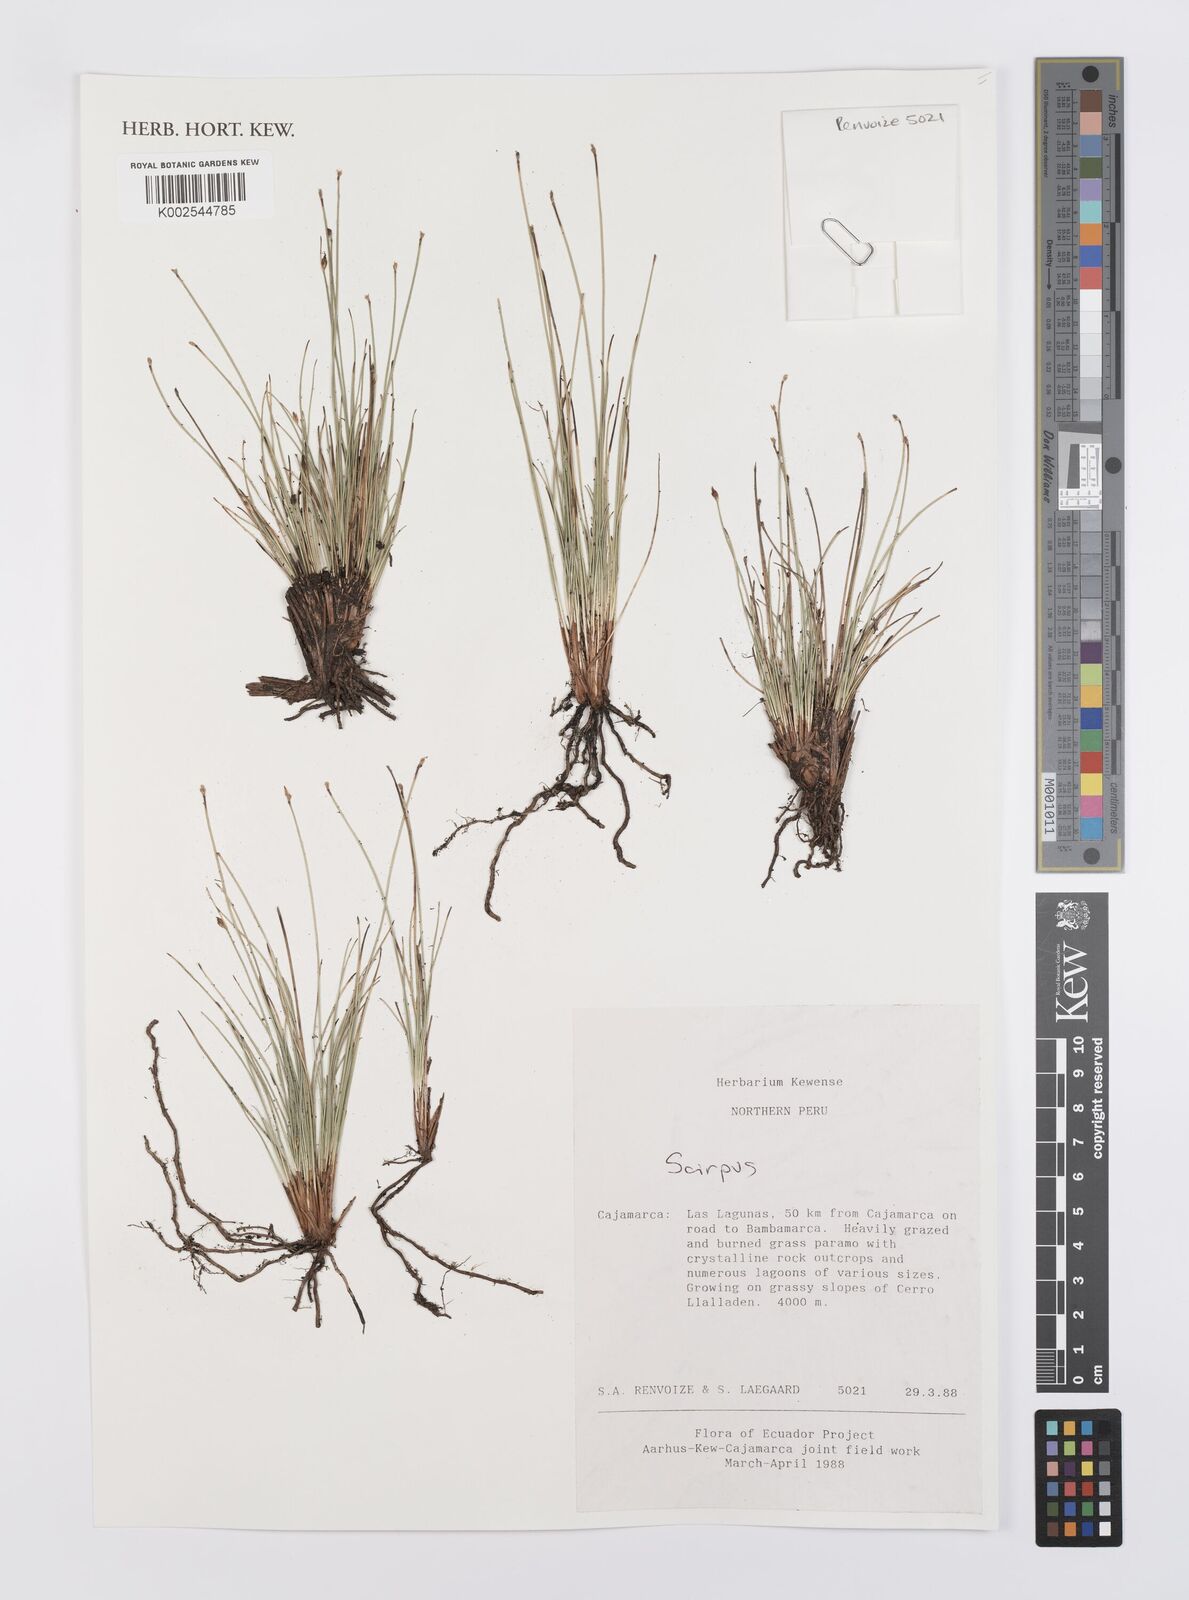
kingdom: Plantae
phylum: Tracheophyta
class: Liliopsida
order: Poales
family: Cyperaceae
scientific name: Cyperaceae
